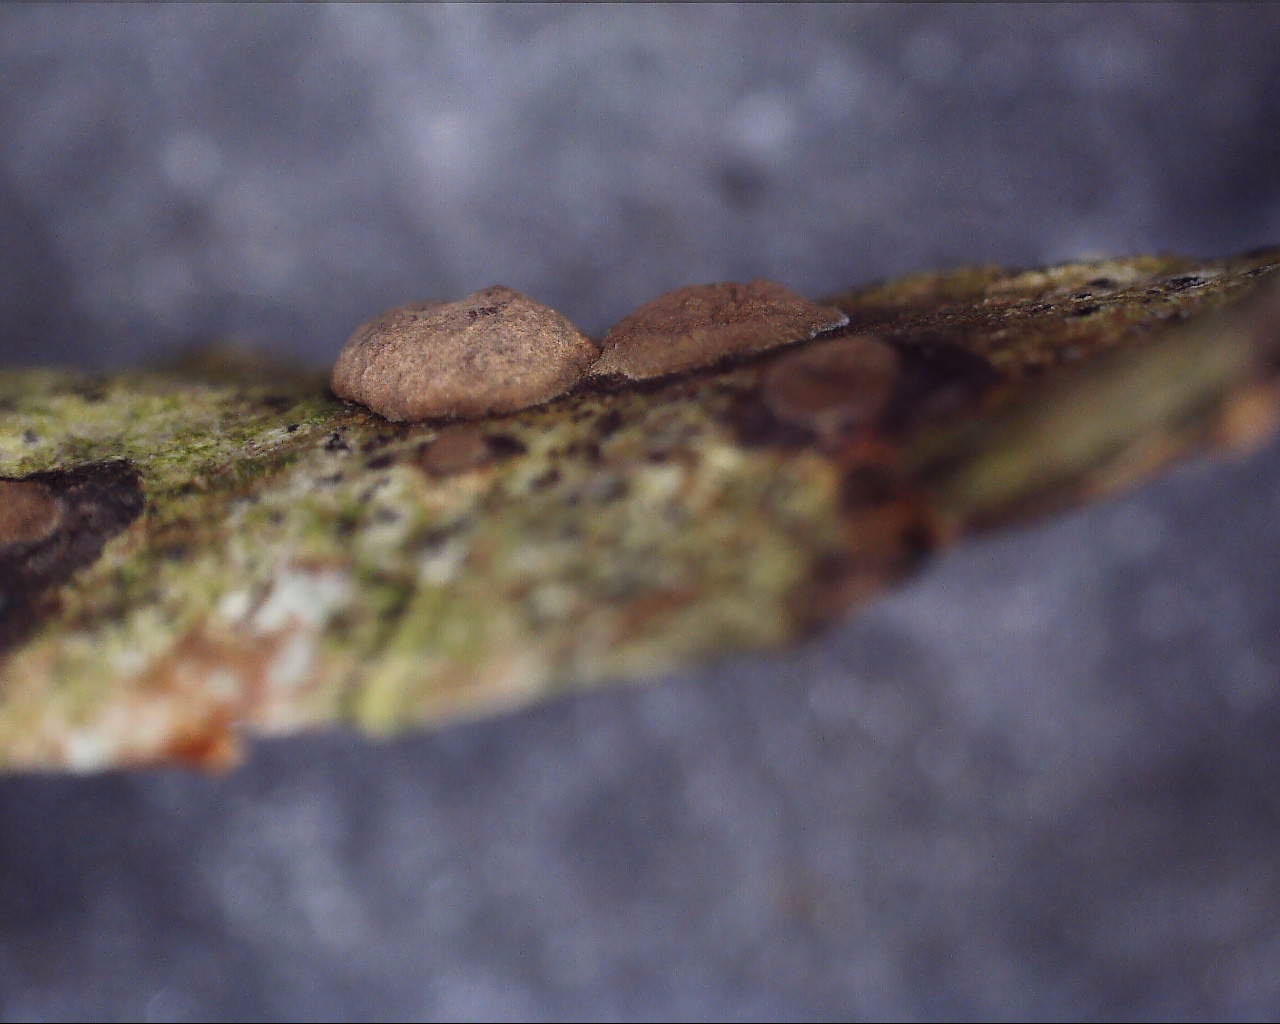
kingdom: Fungi
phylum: Ascomycota
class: Sordariomycetes
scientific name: Sordariomycetes
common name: kernesvampklassen
